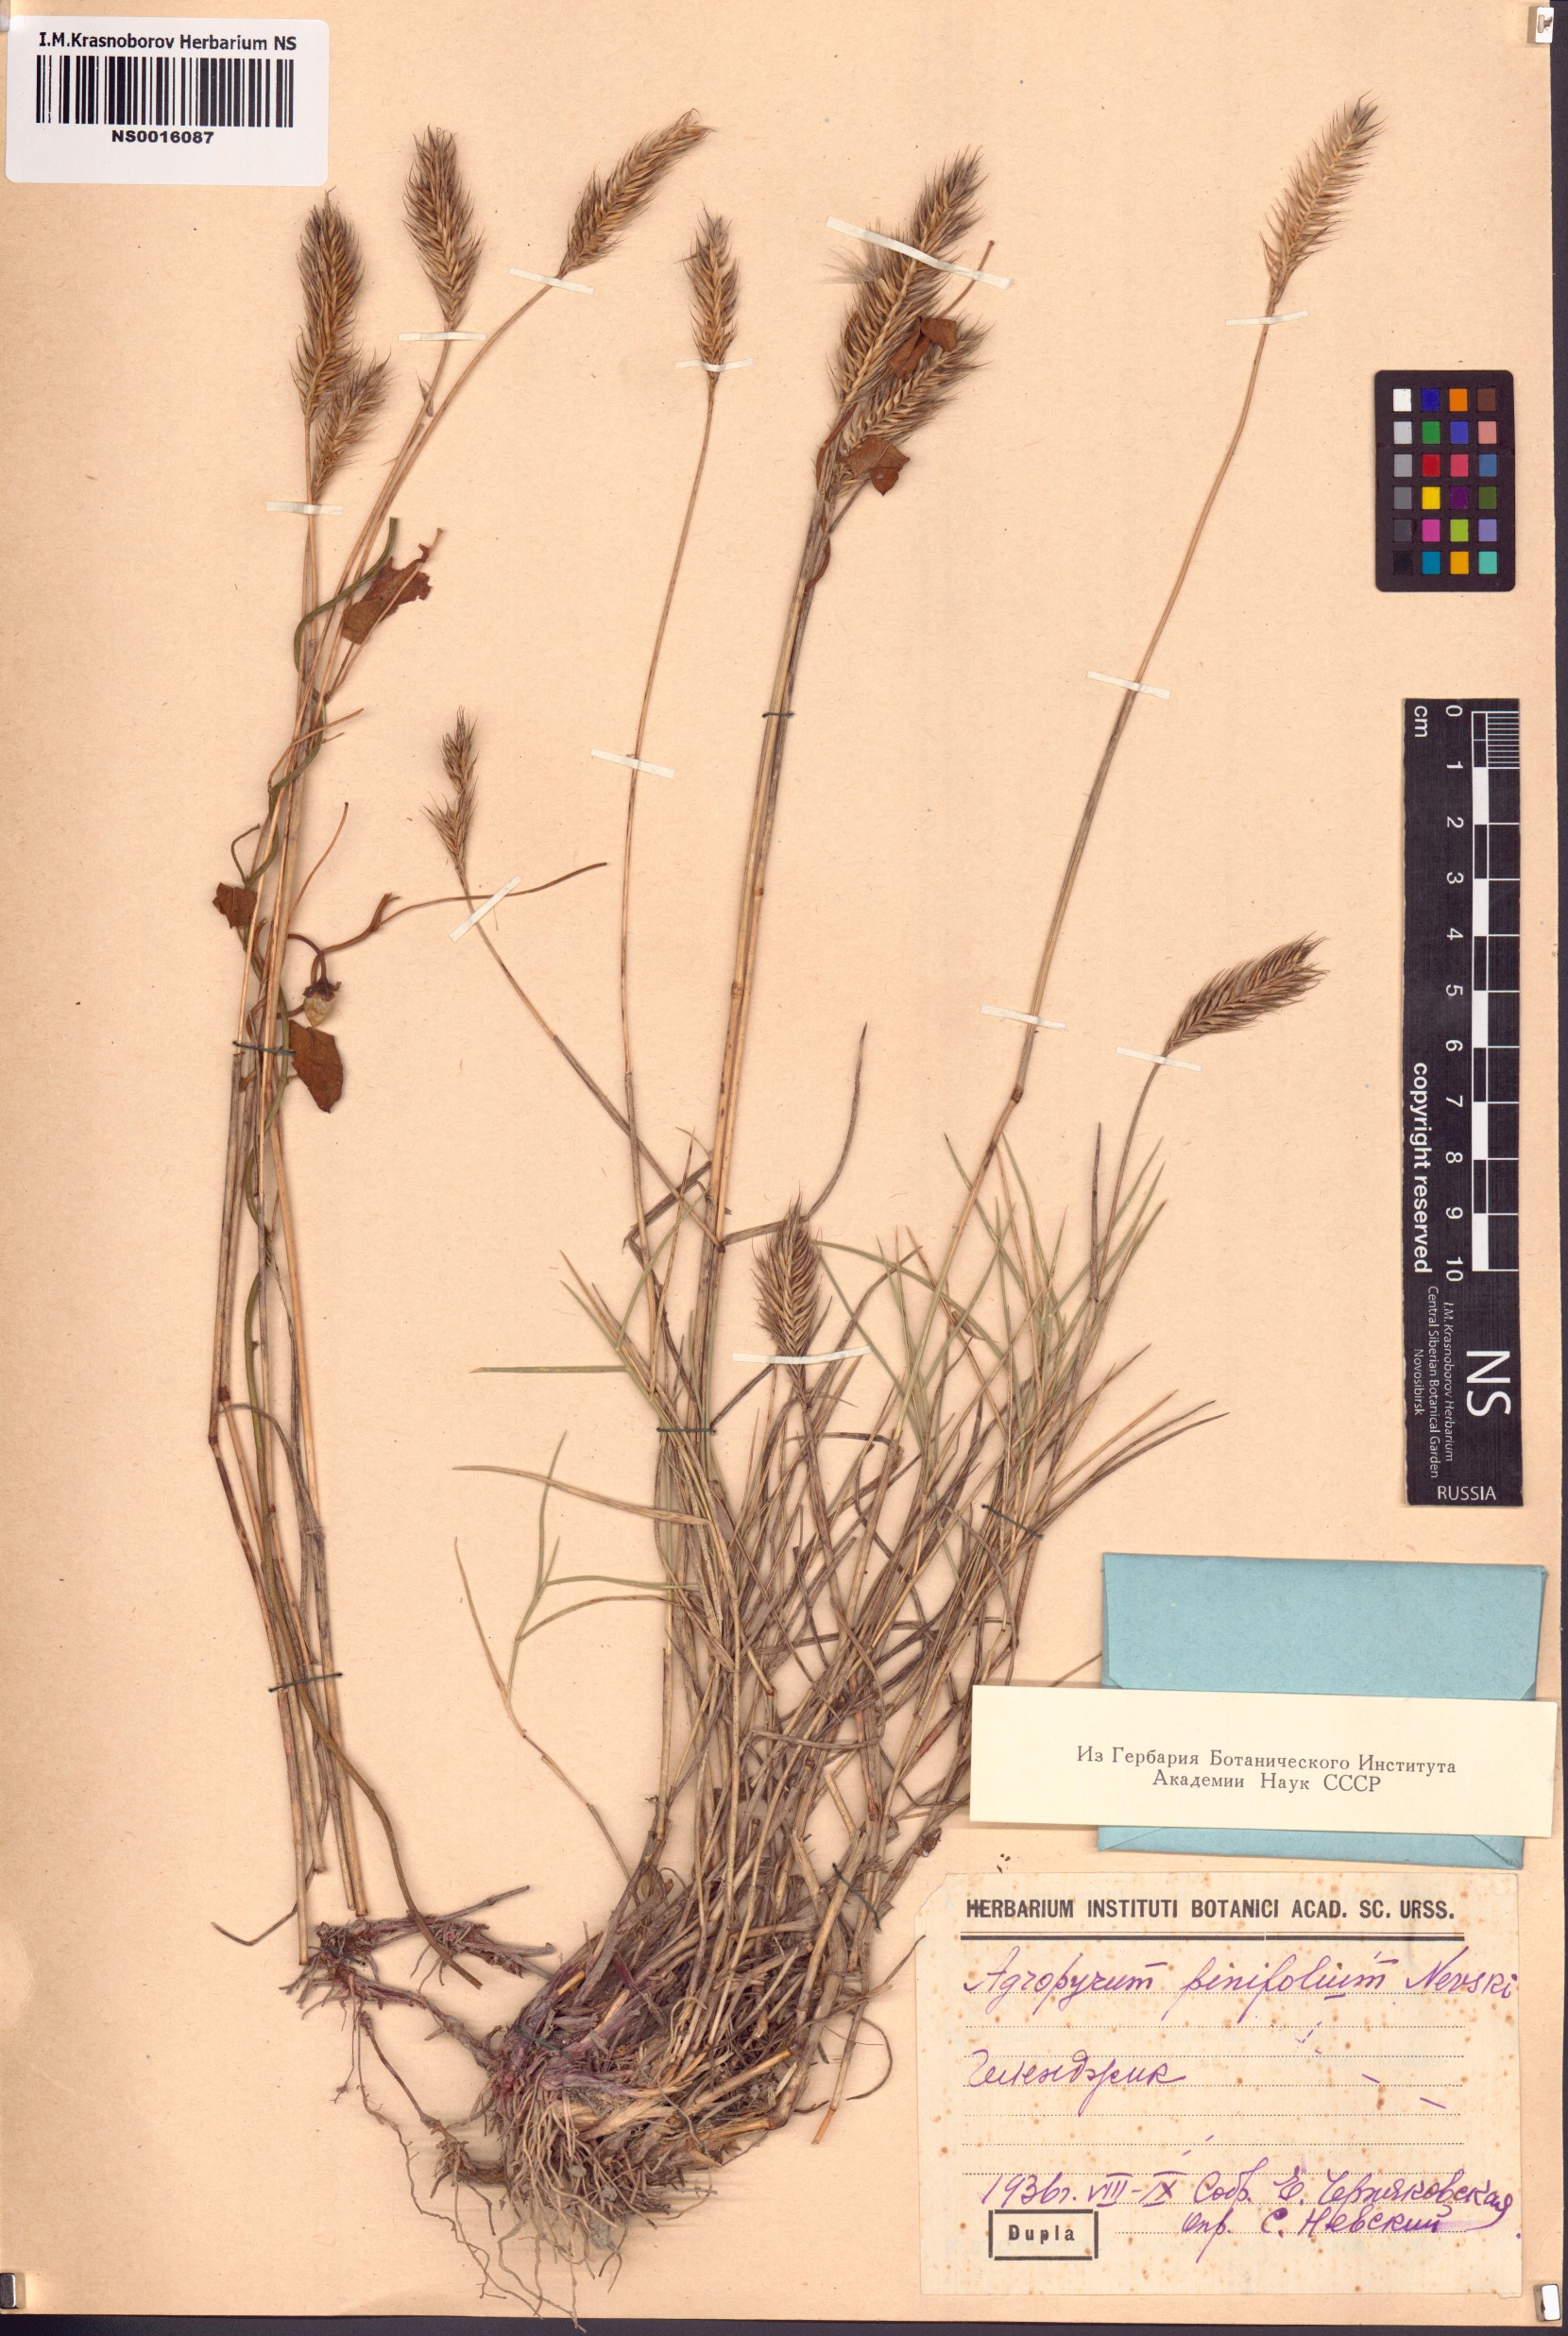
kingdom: Plantae
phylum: Tracheophyta
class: Liliopsida
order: Poales
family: Poaceae
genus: Agropyron
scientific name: Agropyron cristatum
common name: Crested wheatgrass
